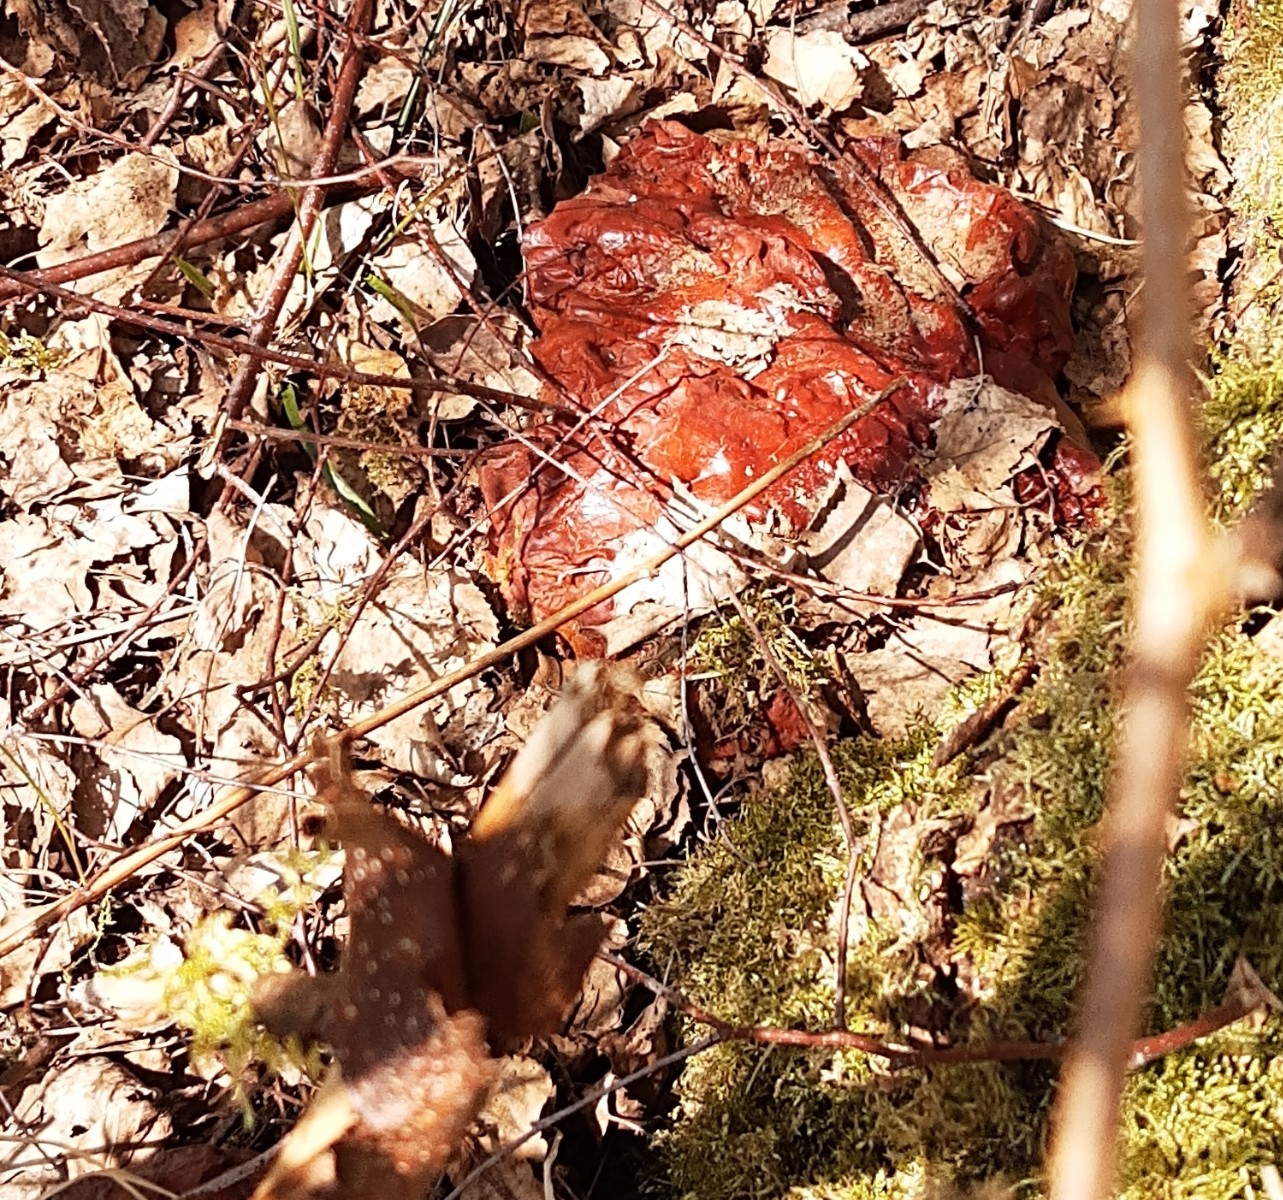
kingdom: Fungi
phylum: Basidiomycota
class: Agaricomycetes
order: Polyporales
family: Polyporaceae
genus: Ganoderma
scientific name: Ganoderma lucidum
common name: skinnende lakporesvamp
